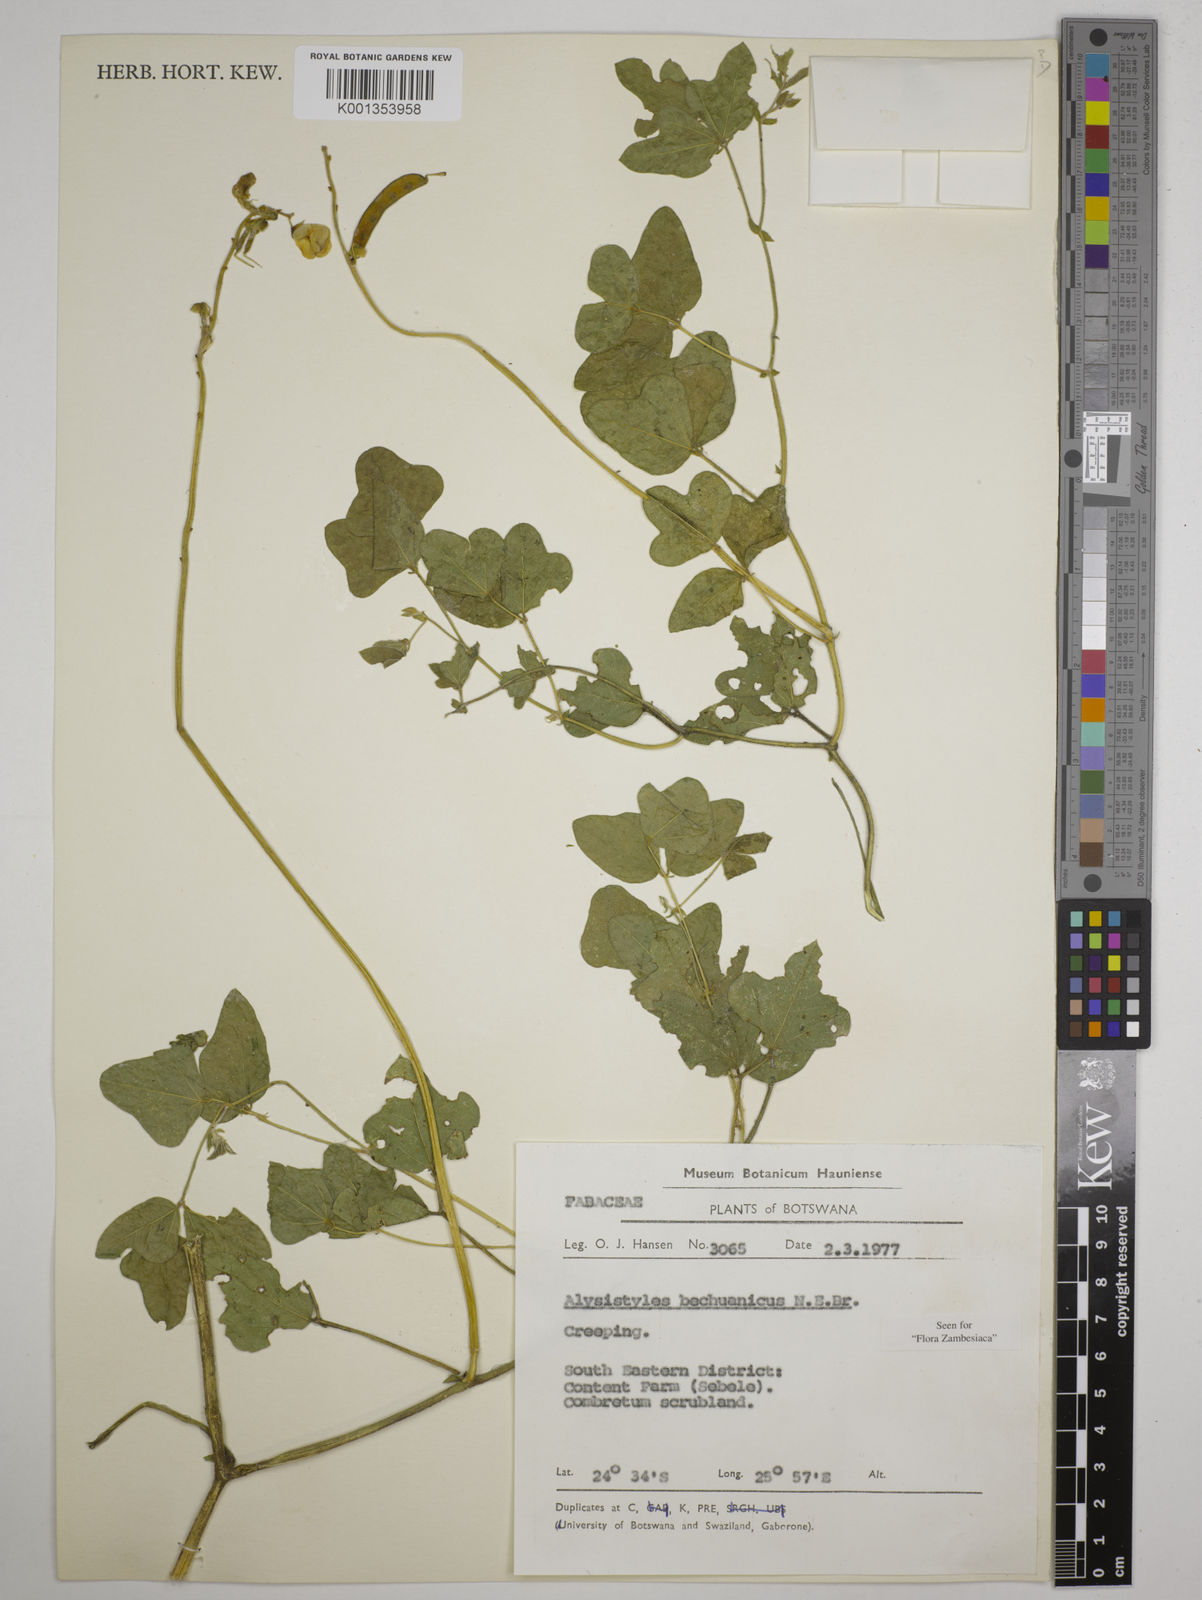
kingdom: Plantae
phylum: Tracheophyta
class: Magnoliopsida
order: Fabales
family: Fabaceae
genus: Alistilus
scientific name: Alistilus bechuanicus
